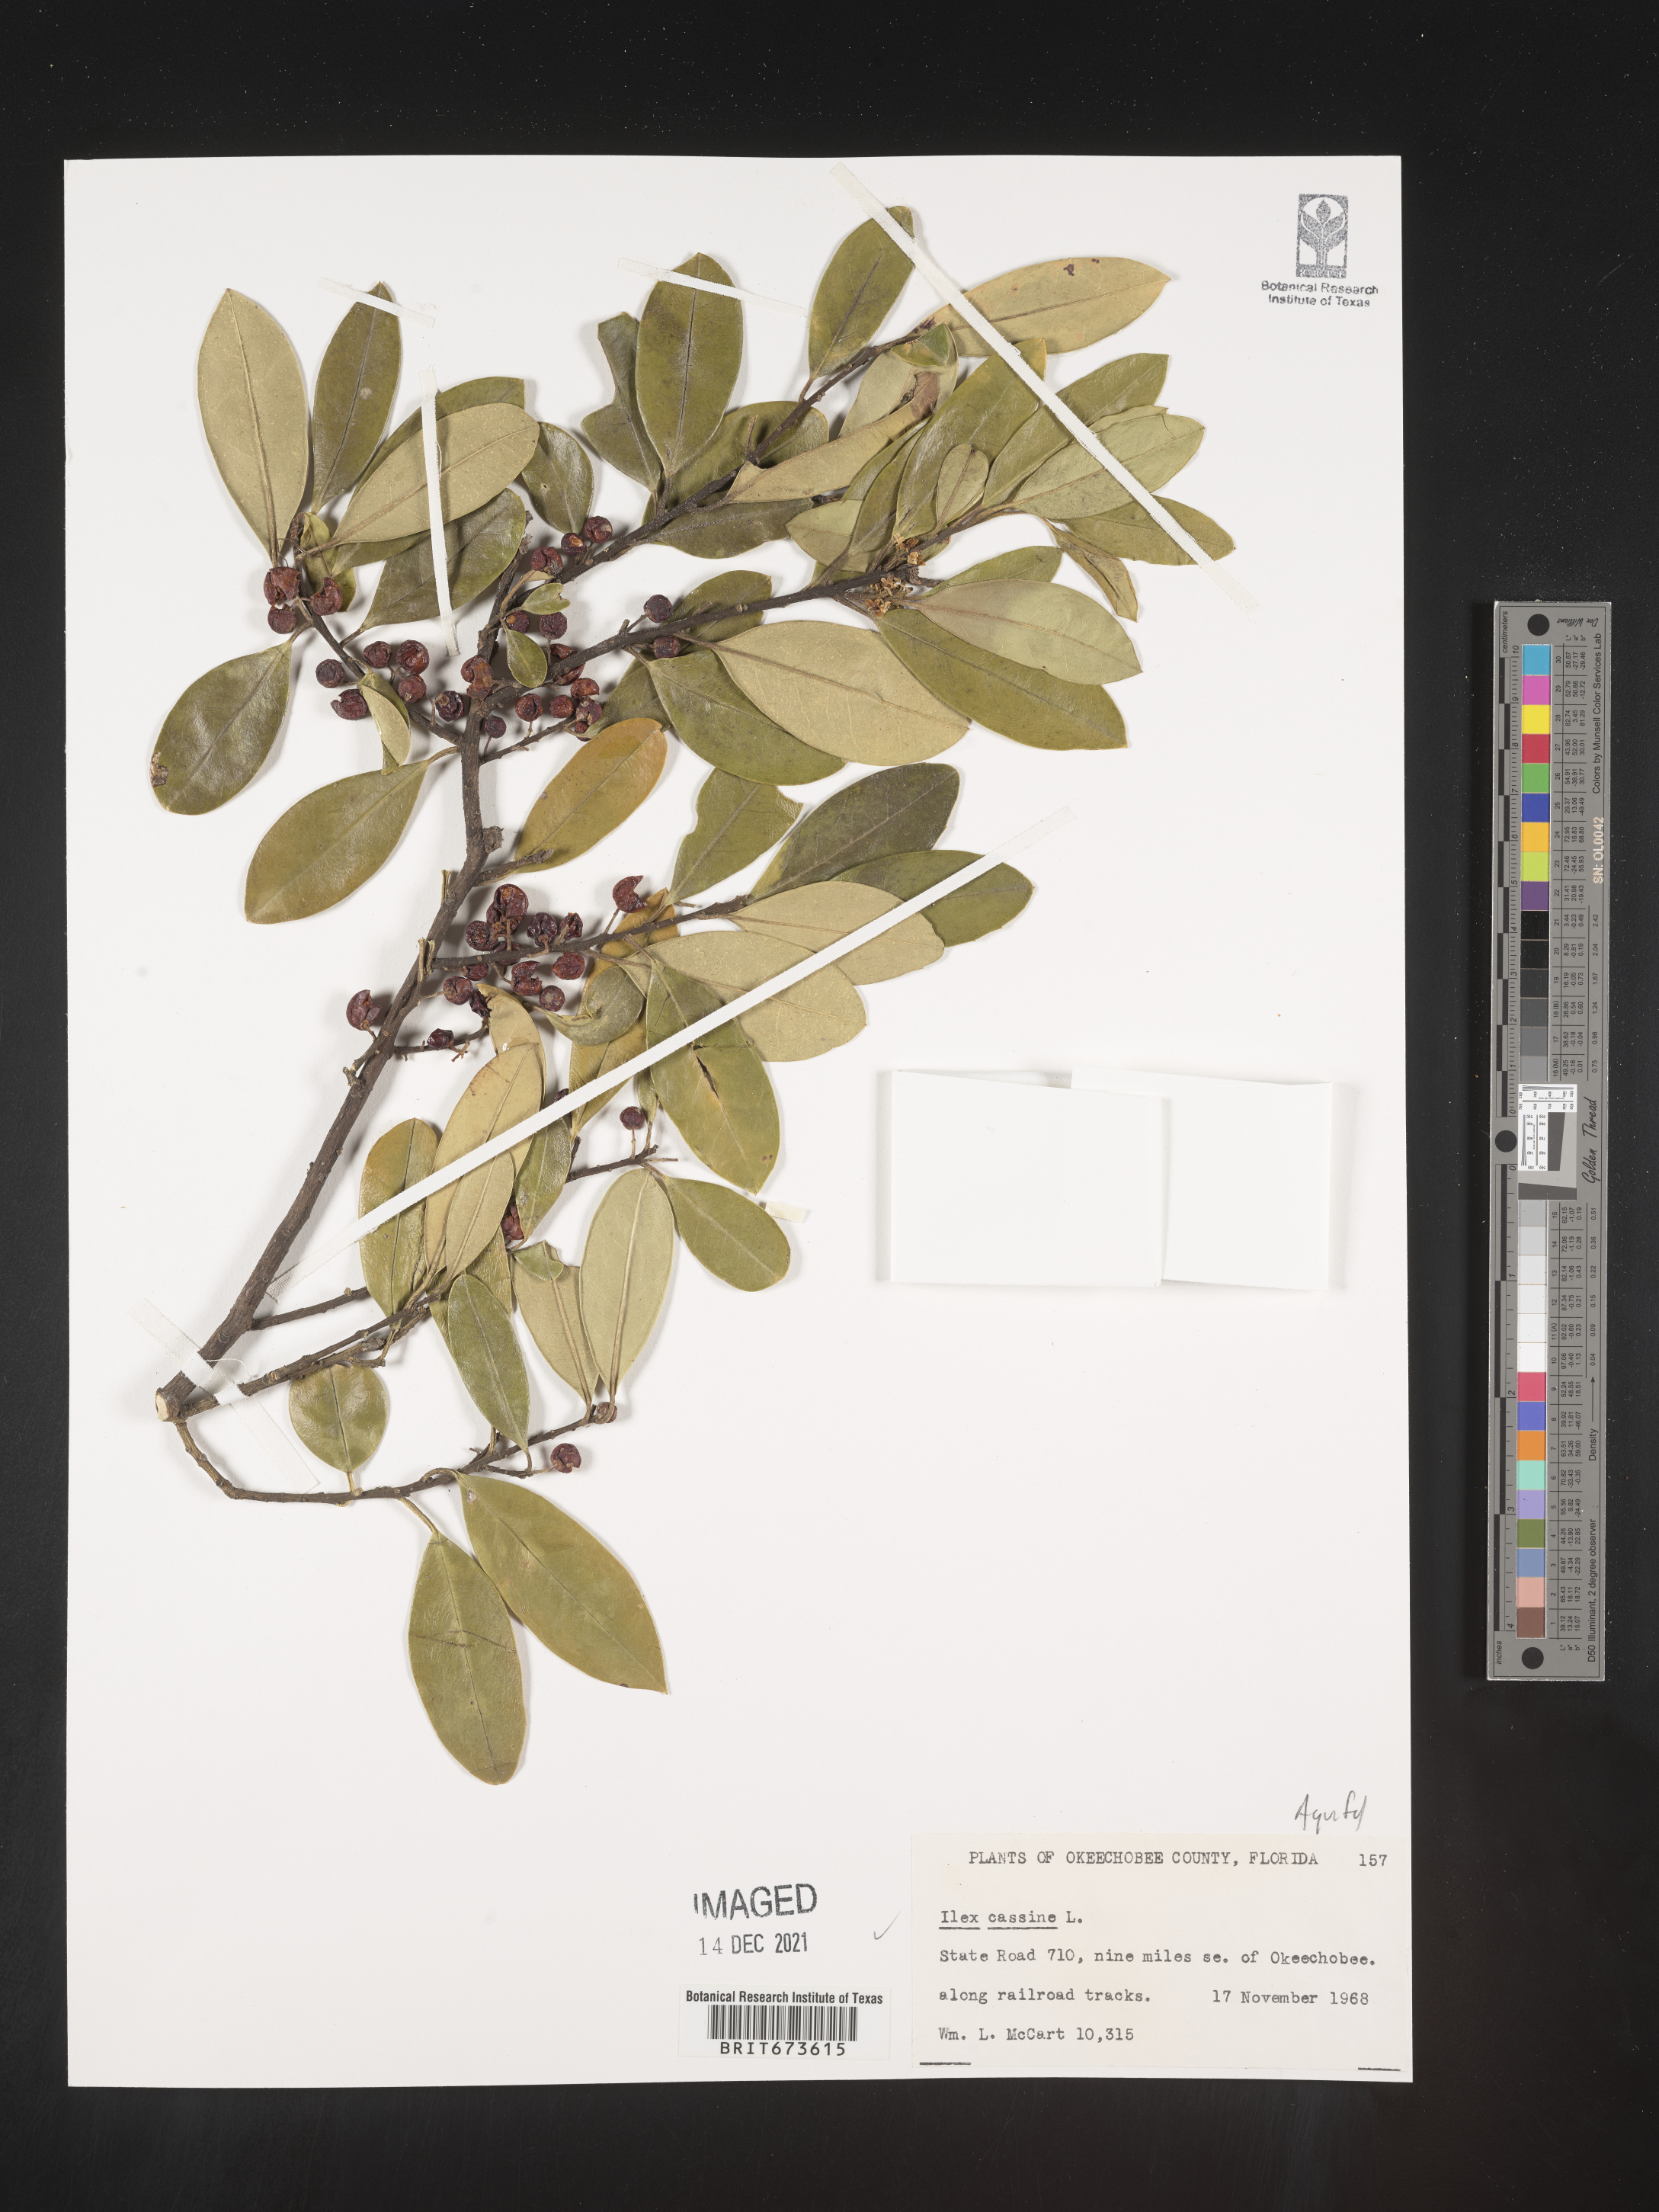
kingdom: Plantae
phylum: Tracheophyta
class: Magnoliopsida
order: Aquifoliales
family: Aquifoliaceae
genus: Ilex
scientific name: Ilex cassine
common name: Dahoon
